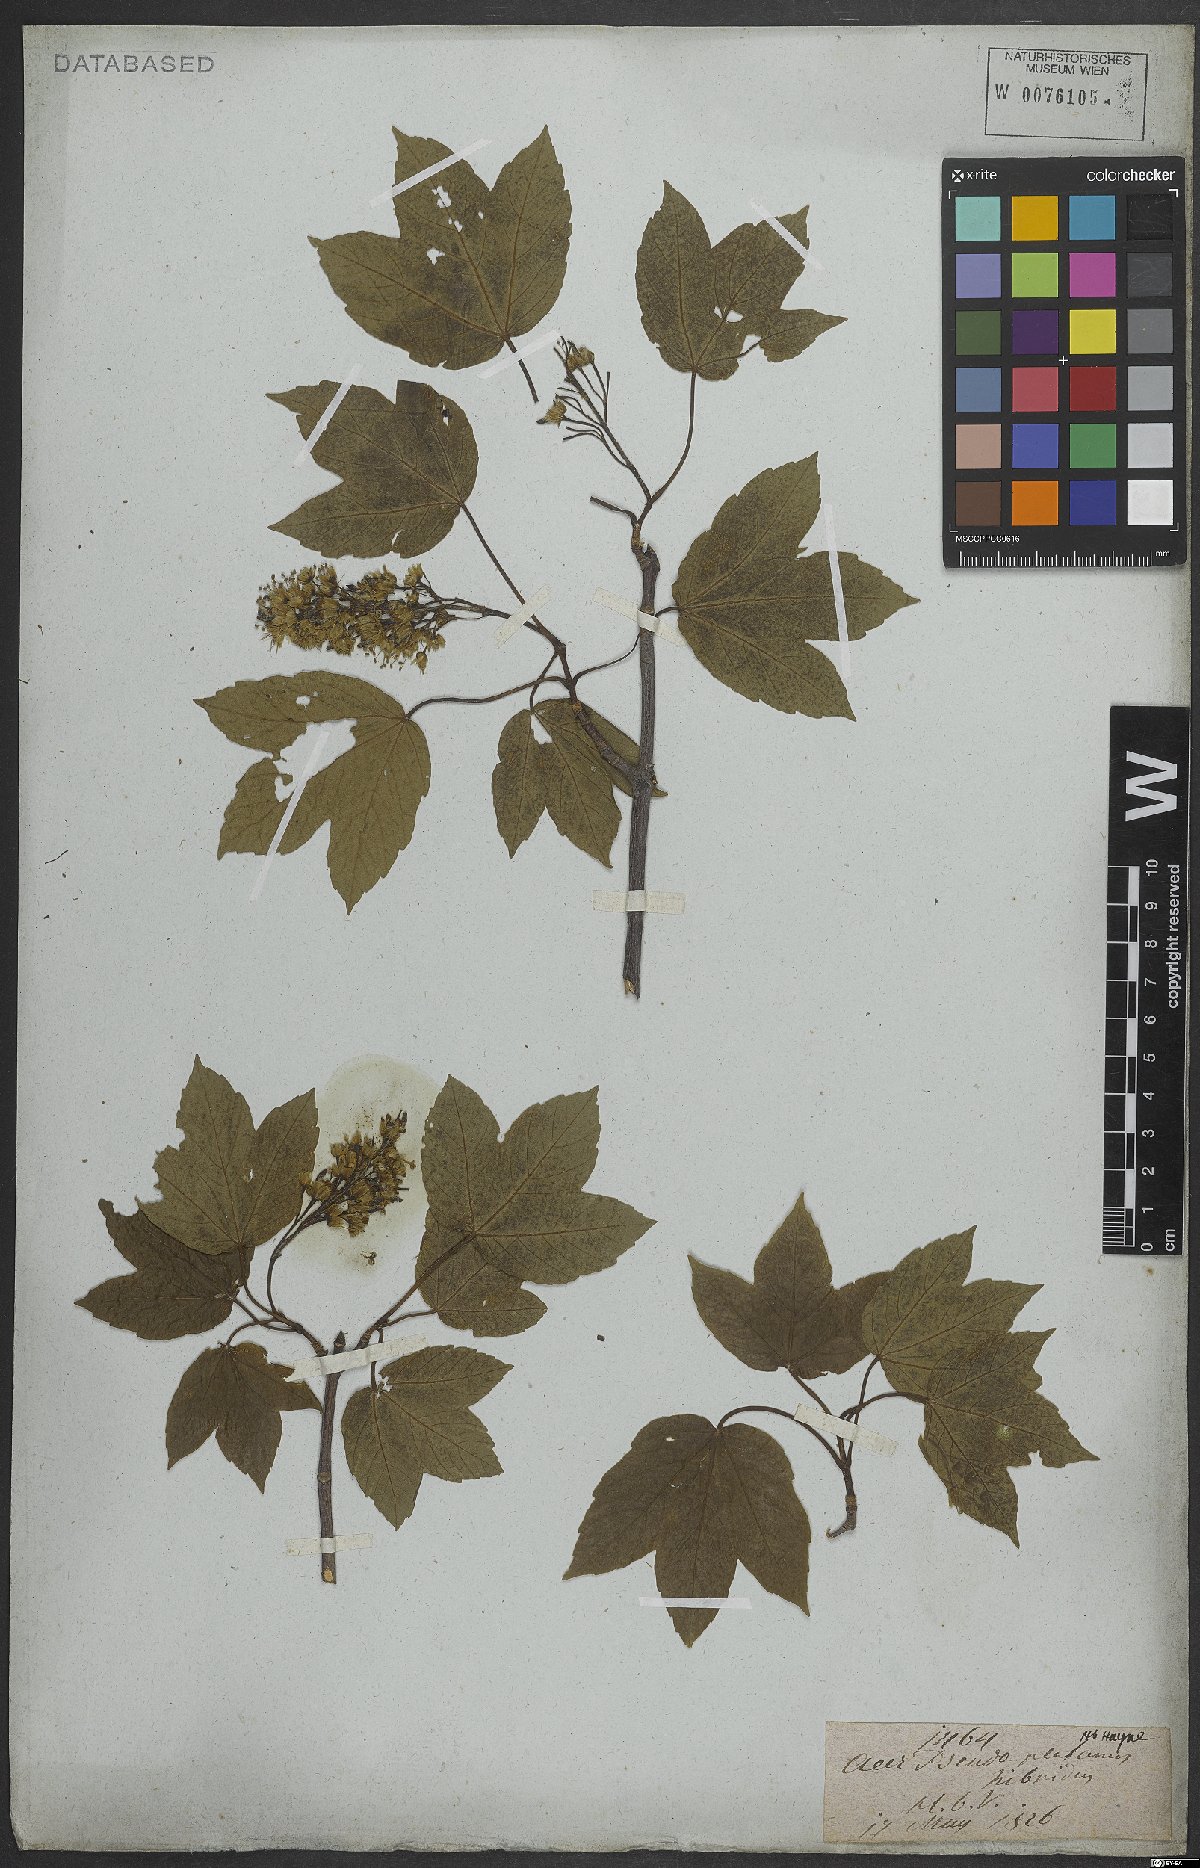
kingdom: Plantae
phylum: Tracheophyta
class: Magnoliopsida
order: Sapindales
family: Sapindaceae
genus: Acer
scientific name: Acer pseudoplatanus
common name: Sycamore
